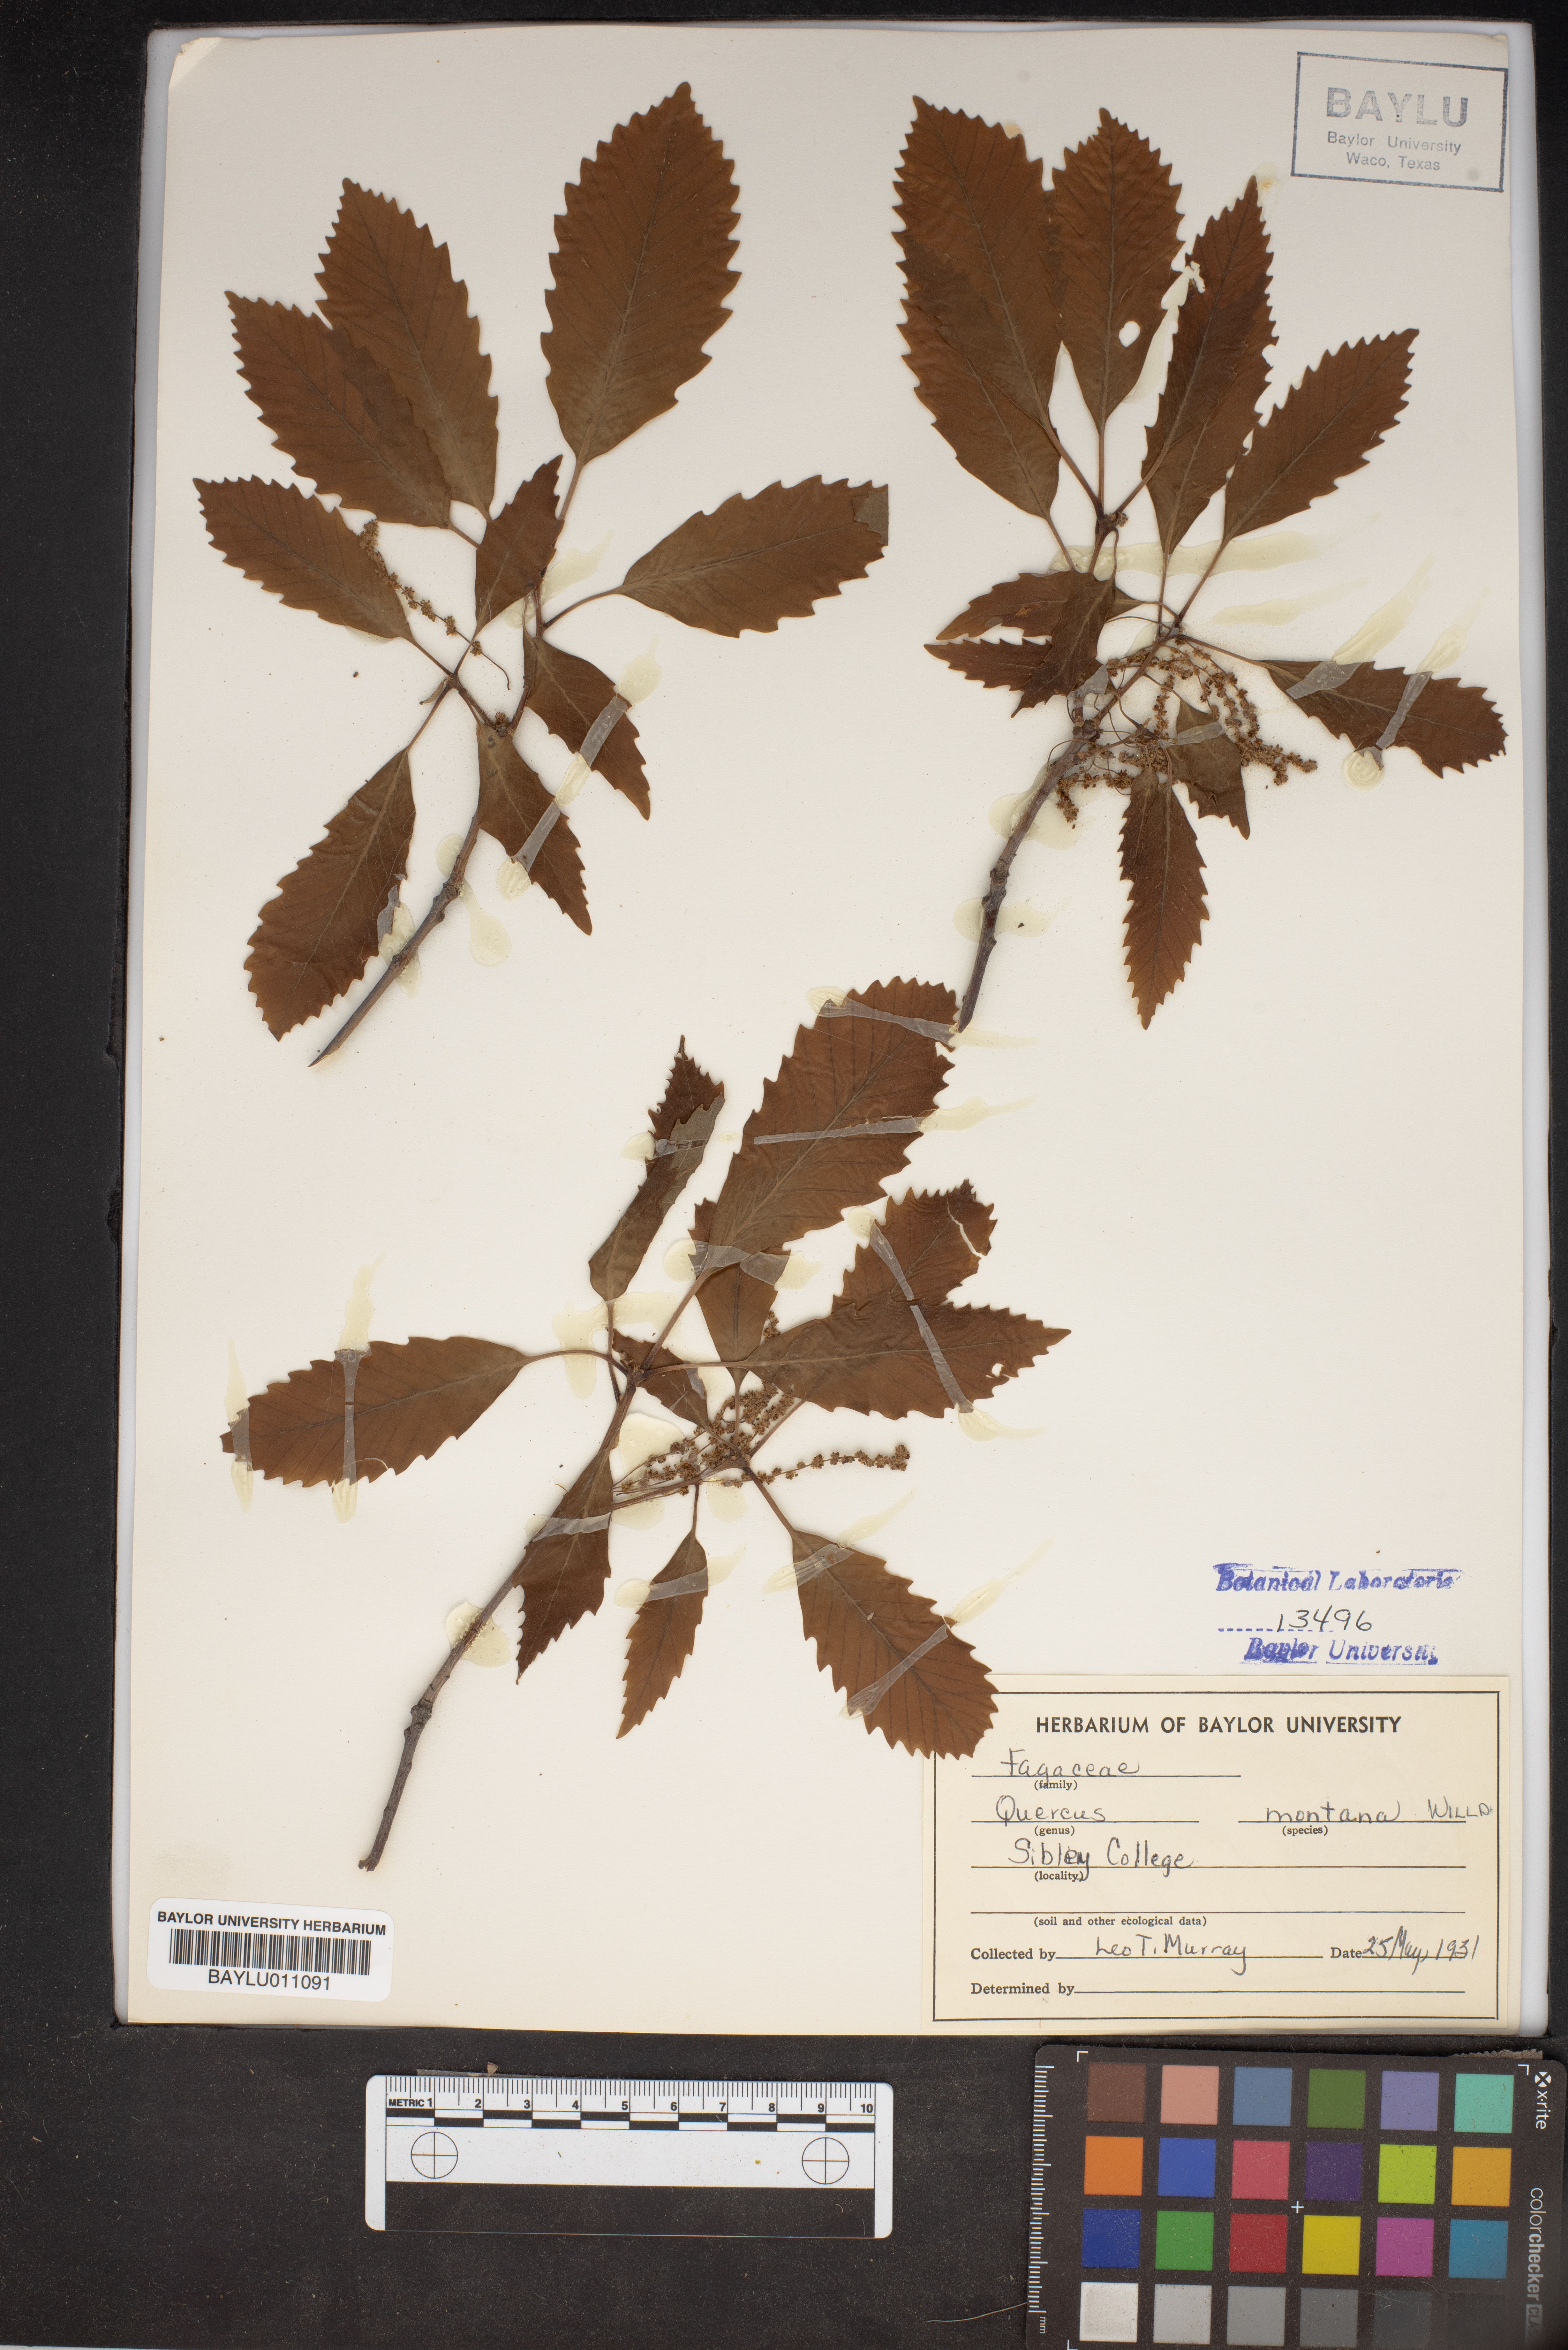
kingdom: Plantae
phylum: Tracheophyta
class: Magnoliopsida
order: Fagales
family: Fagaceae
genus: Quercus
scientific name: Quercus montana
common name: Chestnut oak
